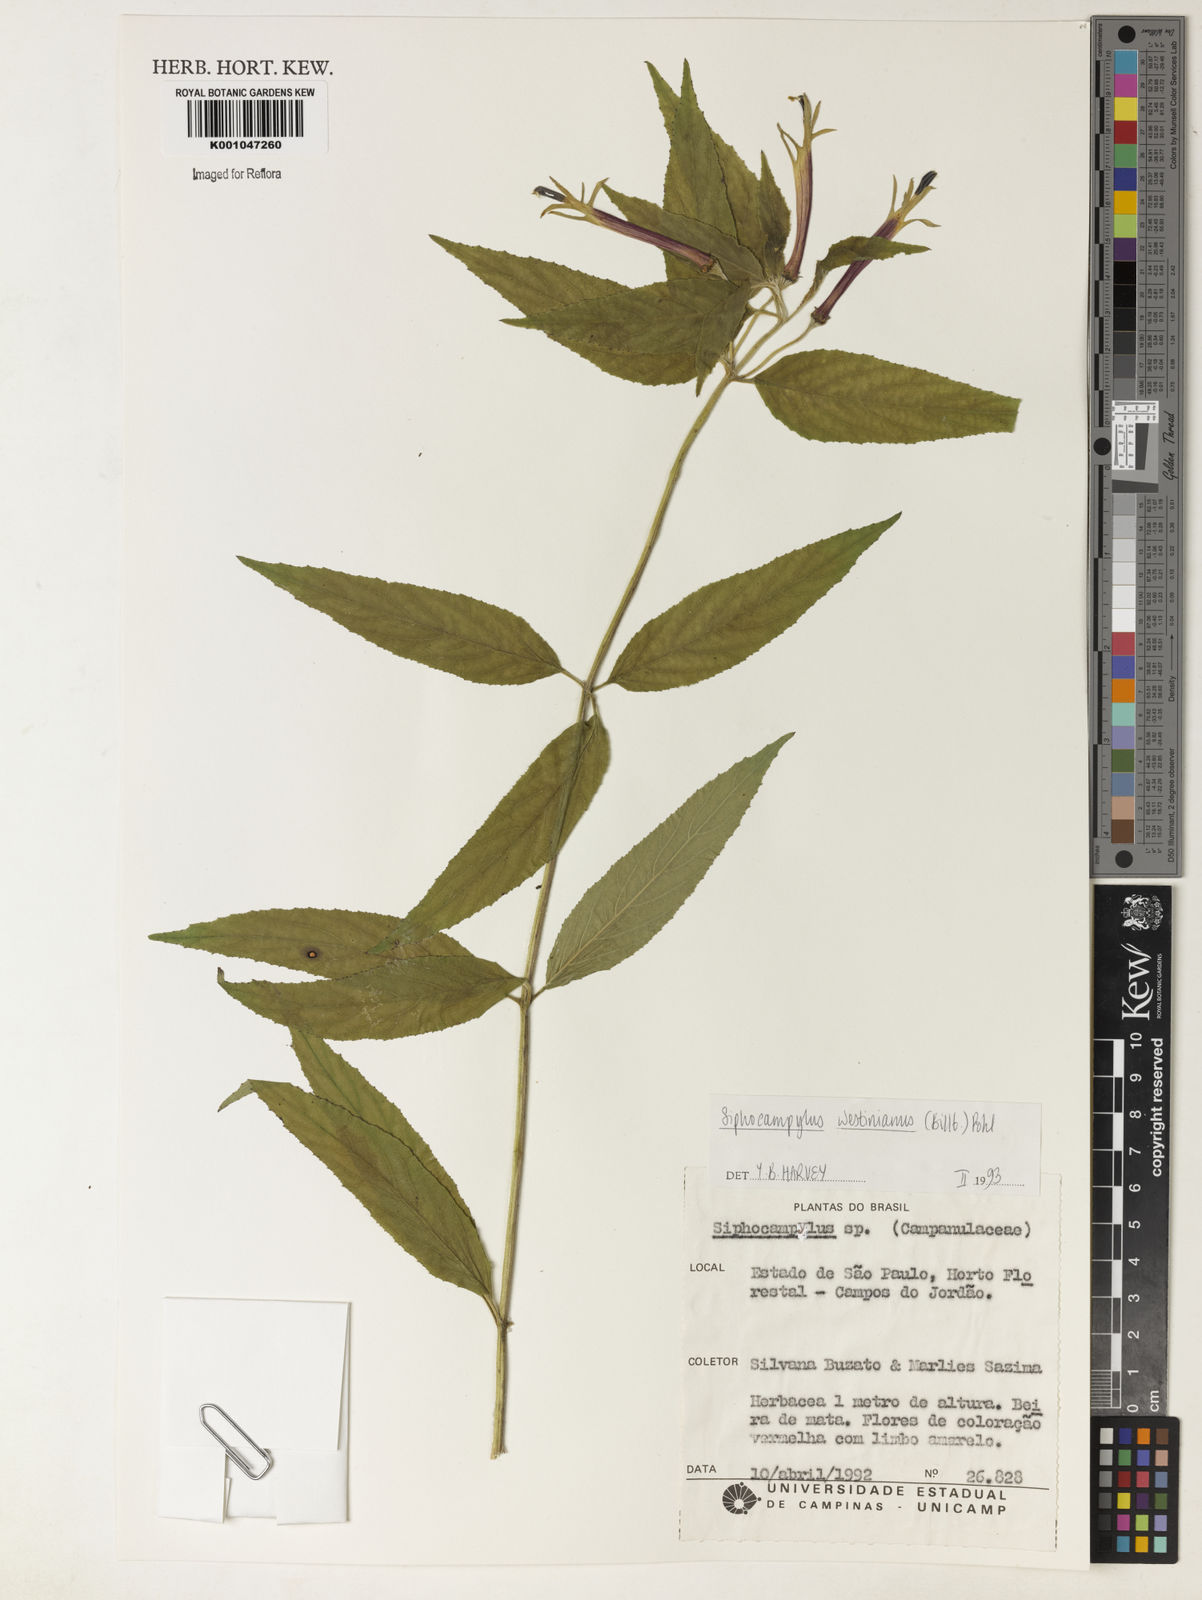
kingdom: Plantae
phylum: Tracheophyta
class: Magnoliopsida
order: Asterales
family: Campanulaceae
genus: Siphocampylus
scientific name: Siphocampylus westinianus
